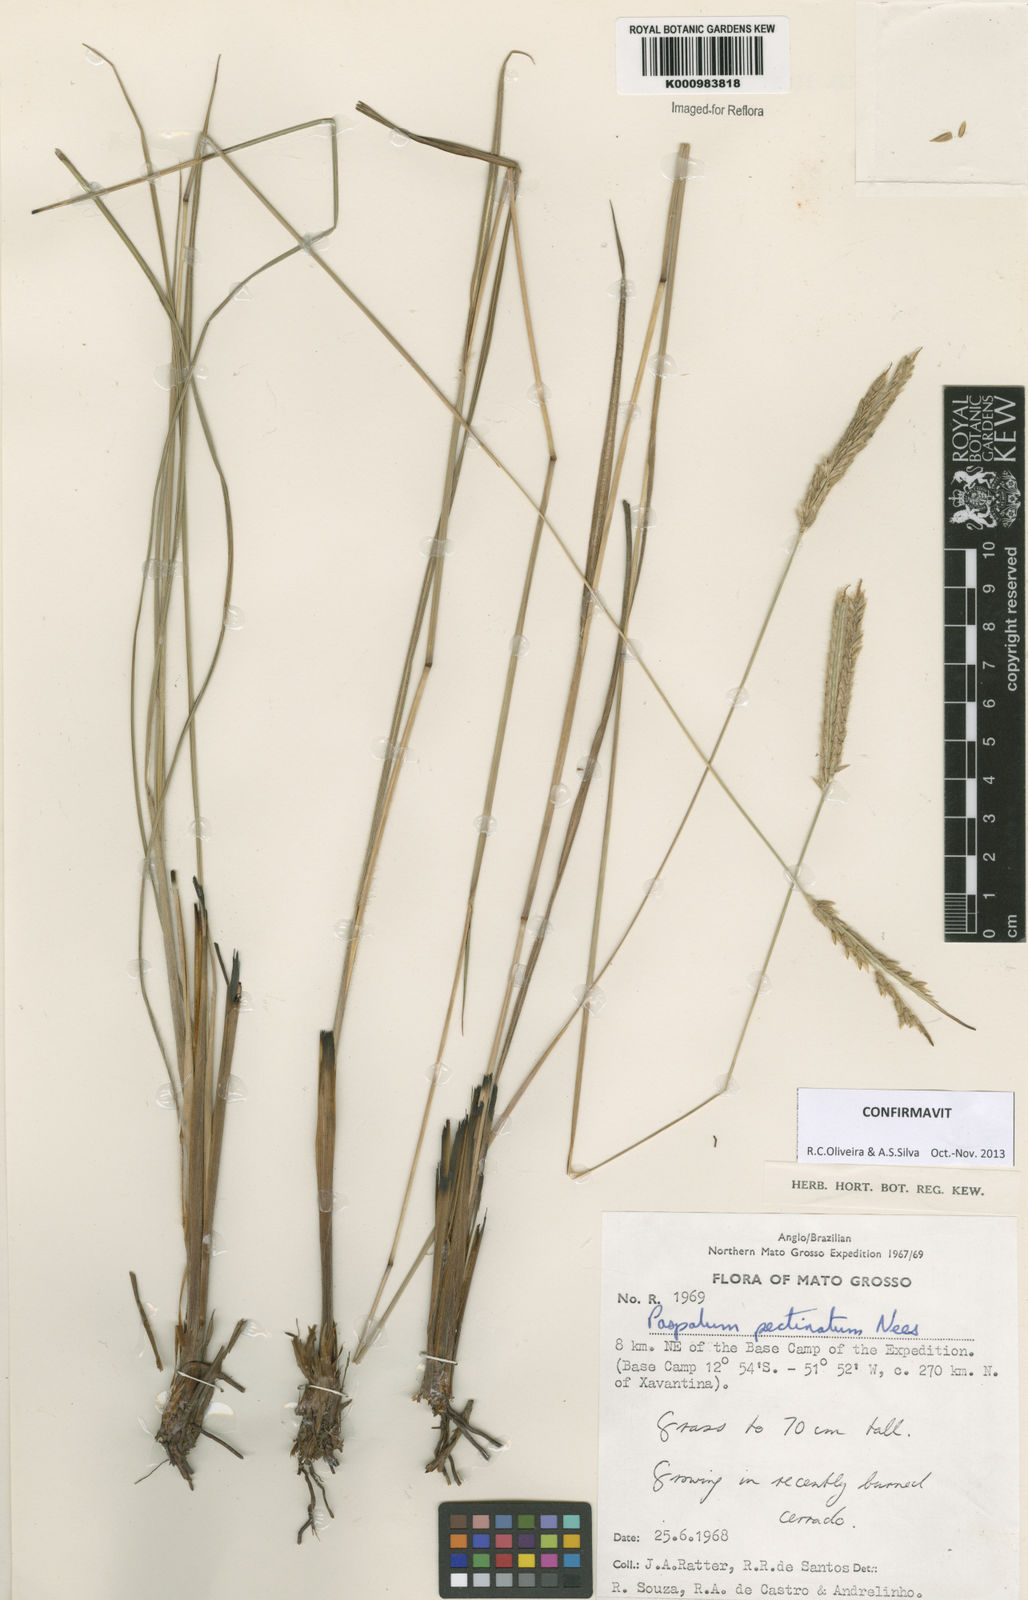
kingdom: Plantae
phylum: Tracheophyta
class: Liliopsida
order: Poales
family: Poaceae
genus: Paspalum
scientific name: Paspalum
